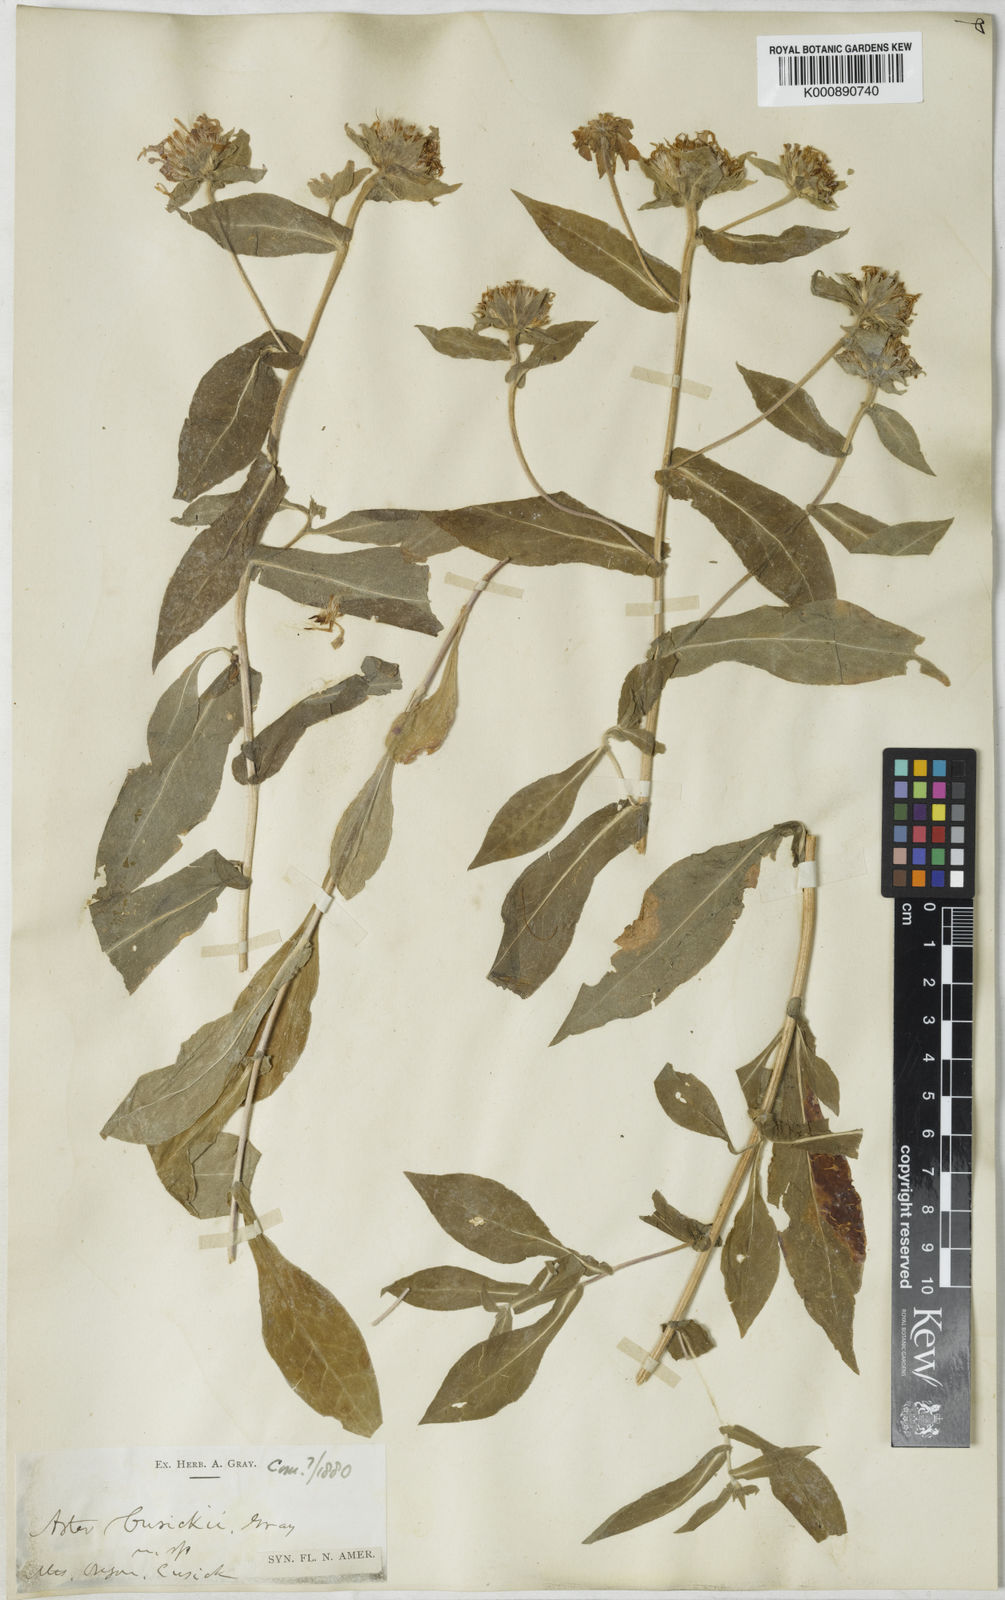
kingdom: Plantae
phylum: Tracheophyta
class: Magnoliopsida
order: Asterales
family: Asteraceae
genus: Symphyotrichum
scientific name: Symphyotrichum foliaceum
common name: Leafy aster
